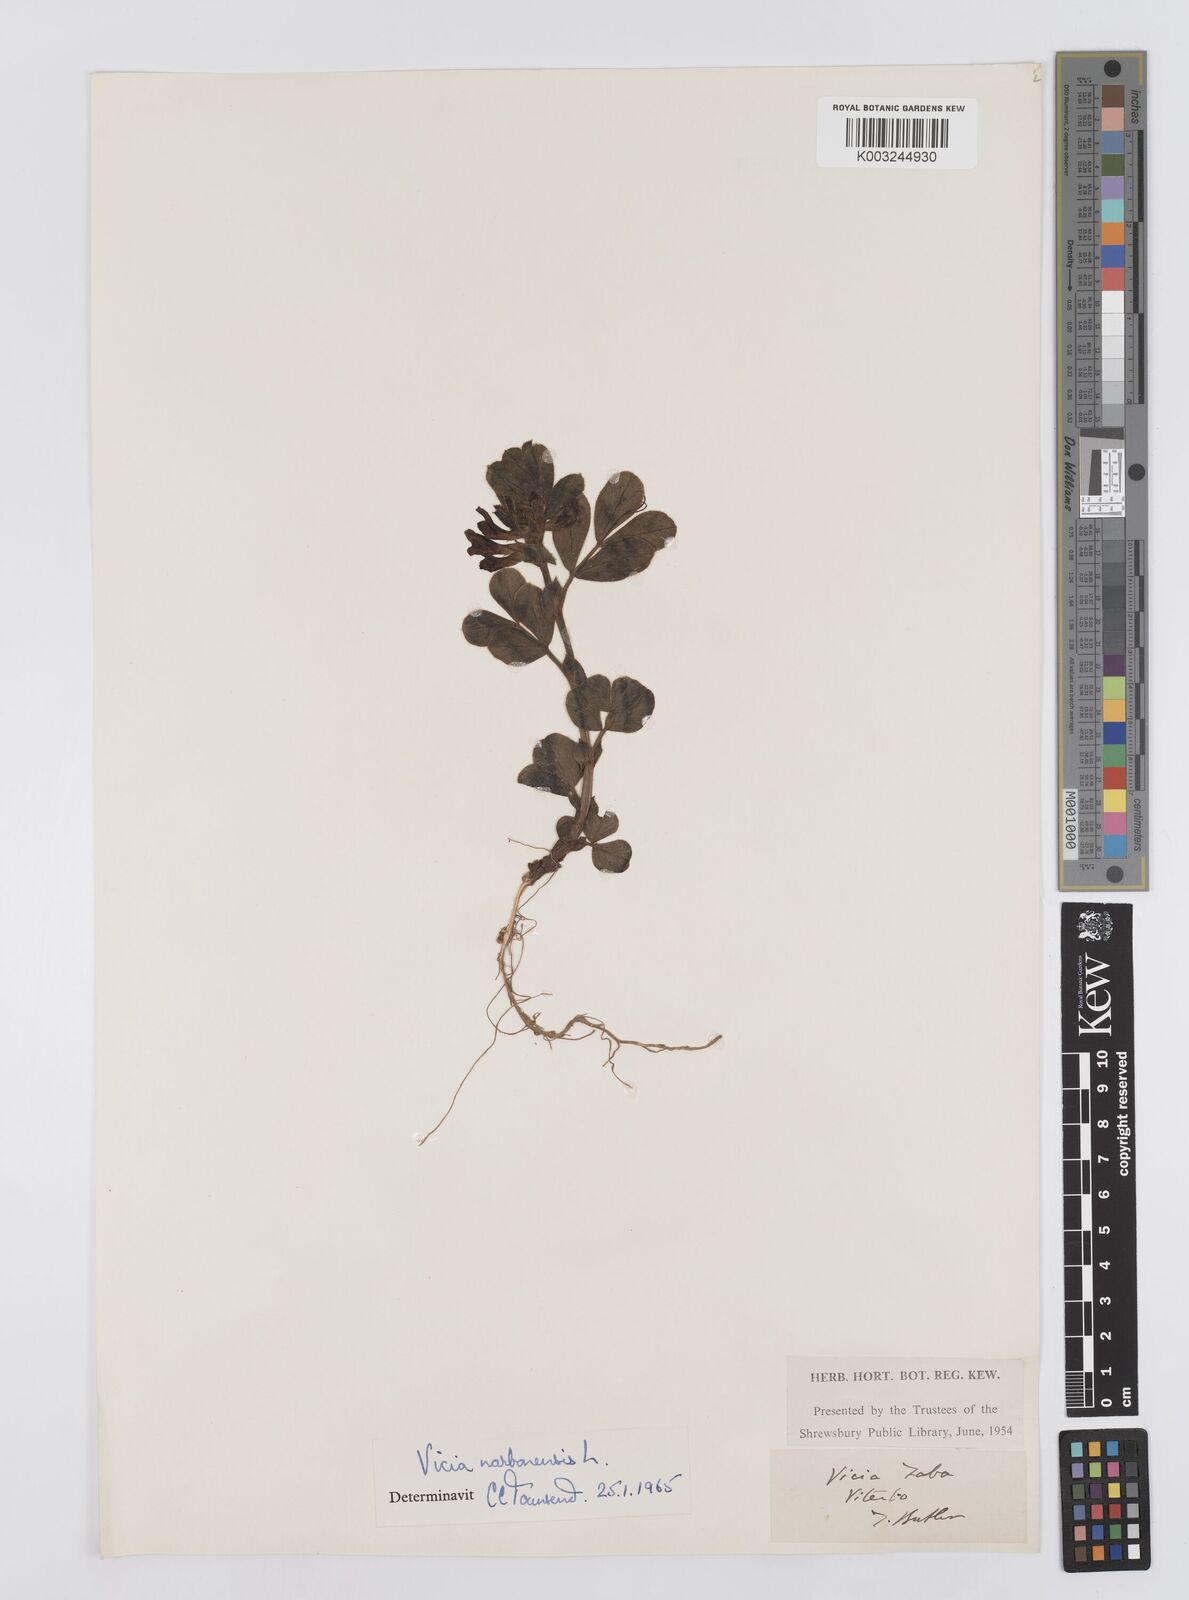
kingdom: Plantae
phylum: Tracheophyta
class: Magnoliopsida
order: Fabales
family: Fabaceae
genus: Vicia
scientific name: Vicia narbonensis
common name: Narbonne vetch
